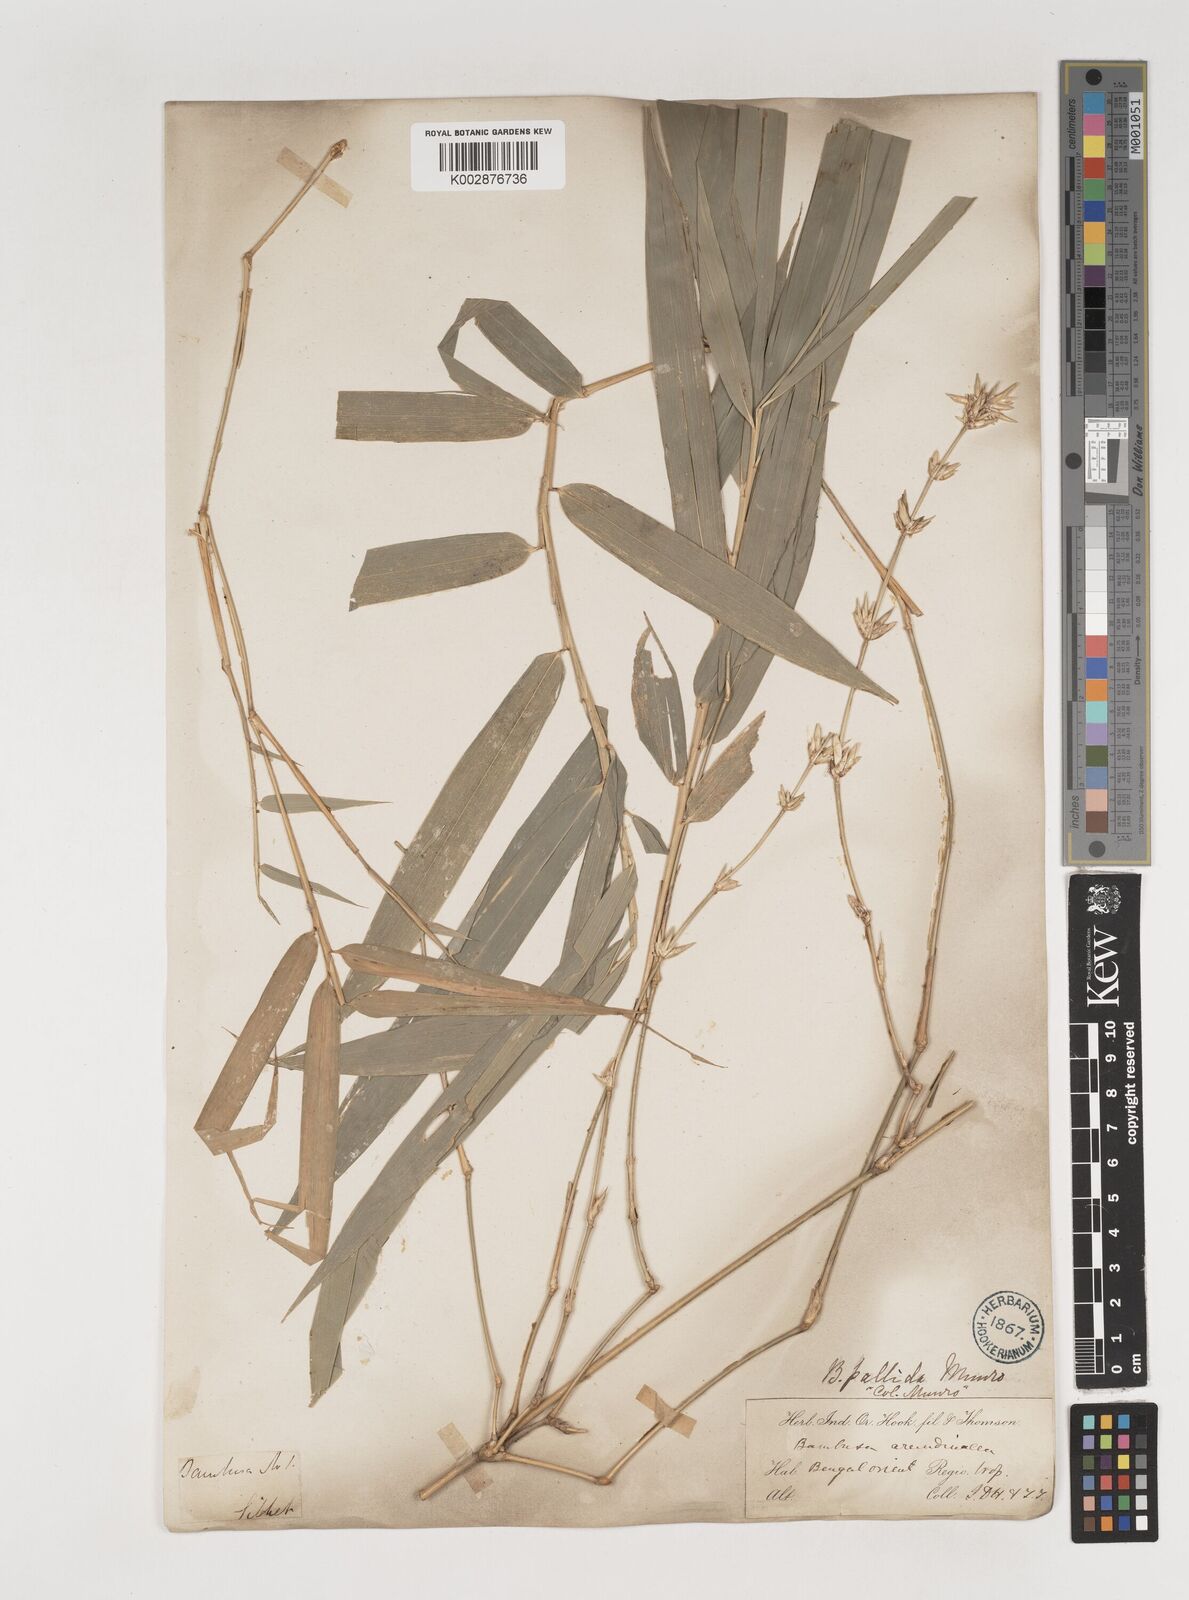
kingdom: Plantae
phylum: Tracheophyta
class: Liliopsida
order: Poales
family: Poaceae
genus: Bambusa
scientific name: Bambusa pallida
